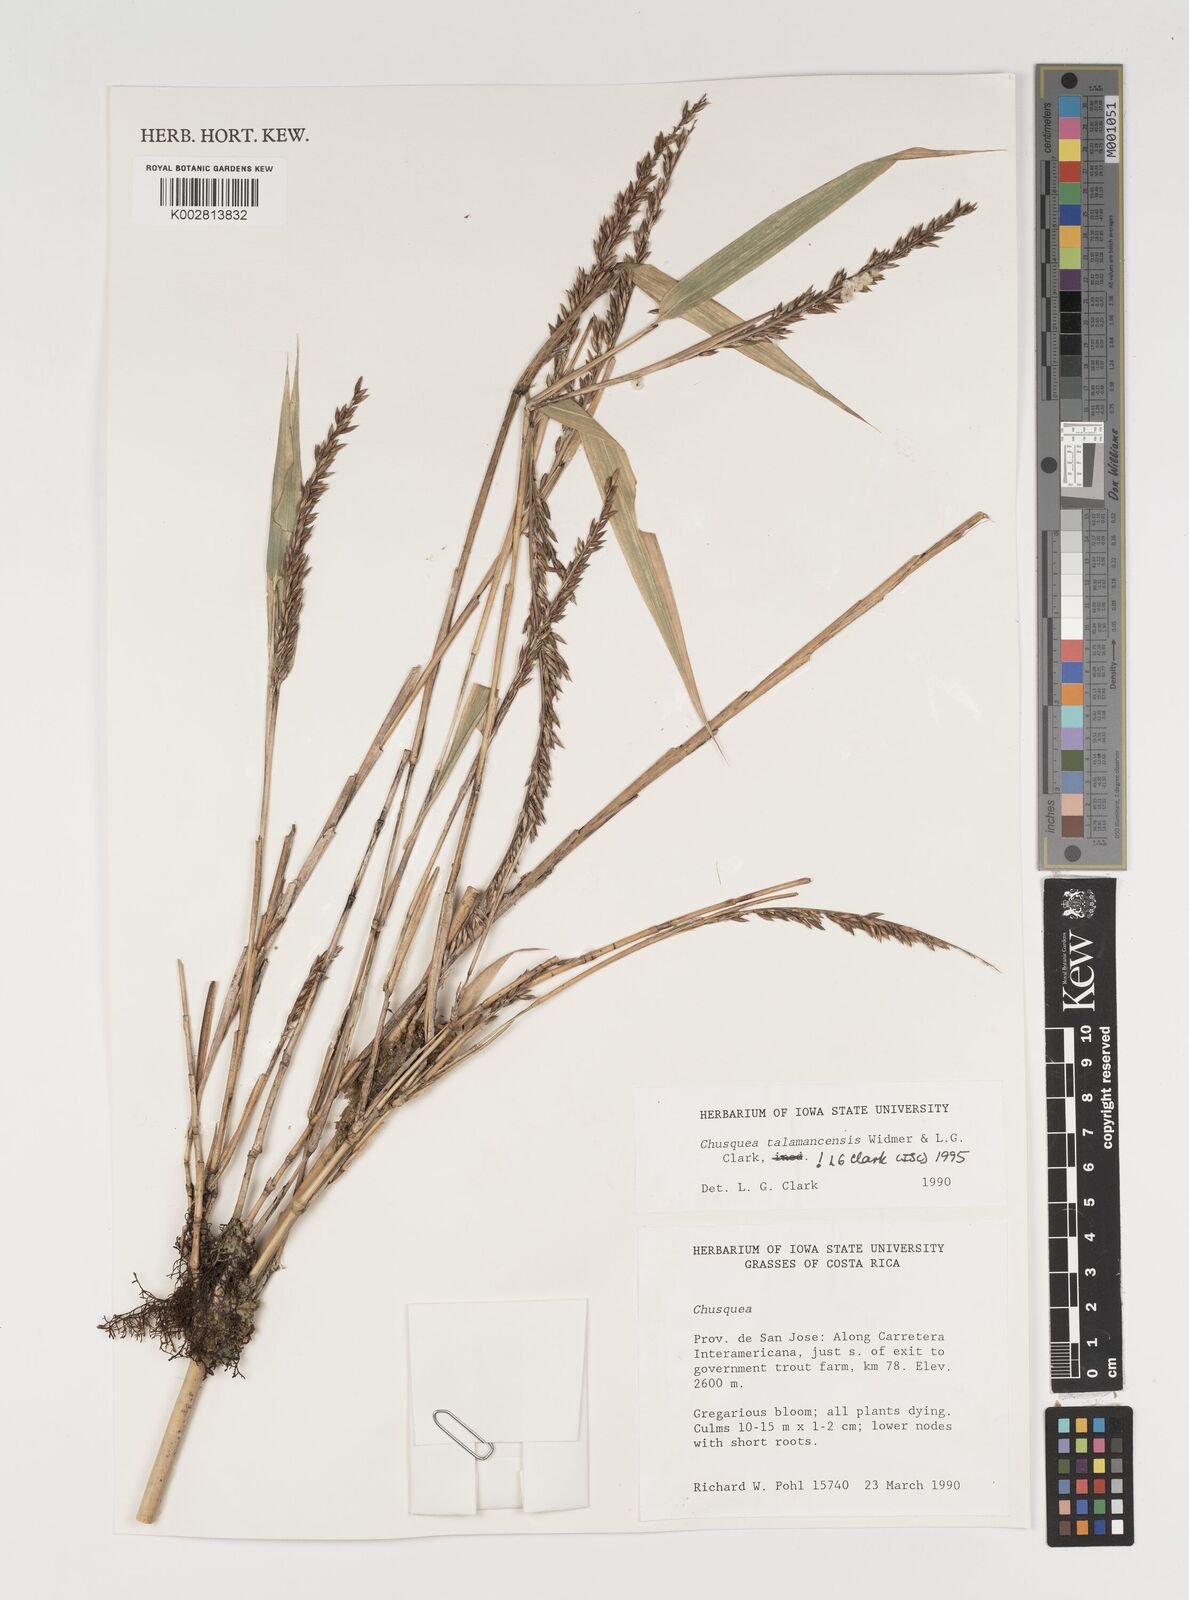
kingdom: Plantae
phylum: Tracheophyta
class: Liliopsida
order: Poales
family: Poaceae
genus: Chusquea
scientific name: Chusquea talamancensis
